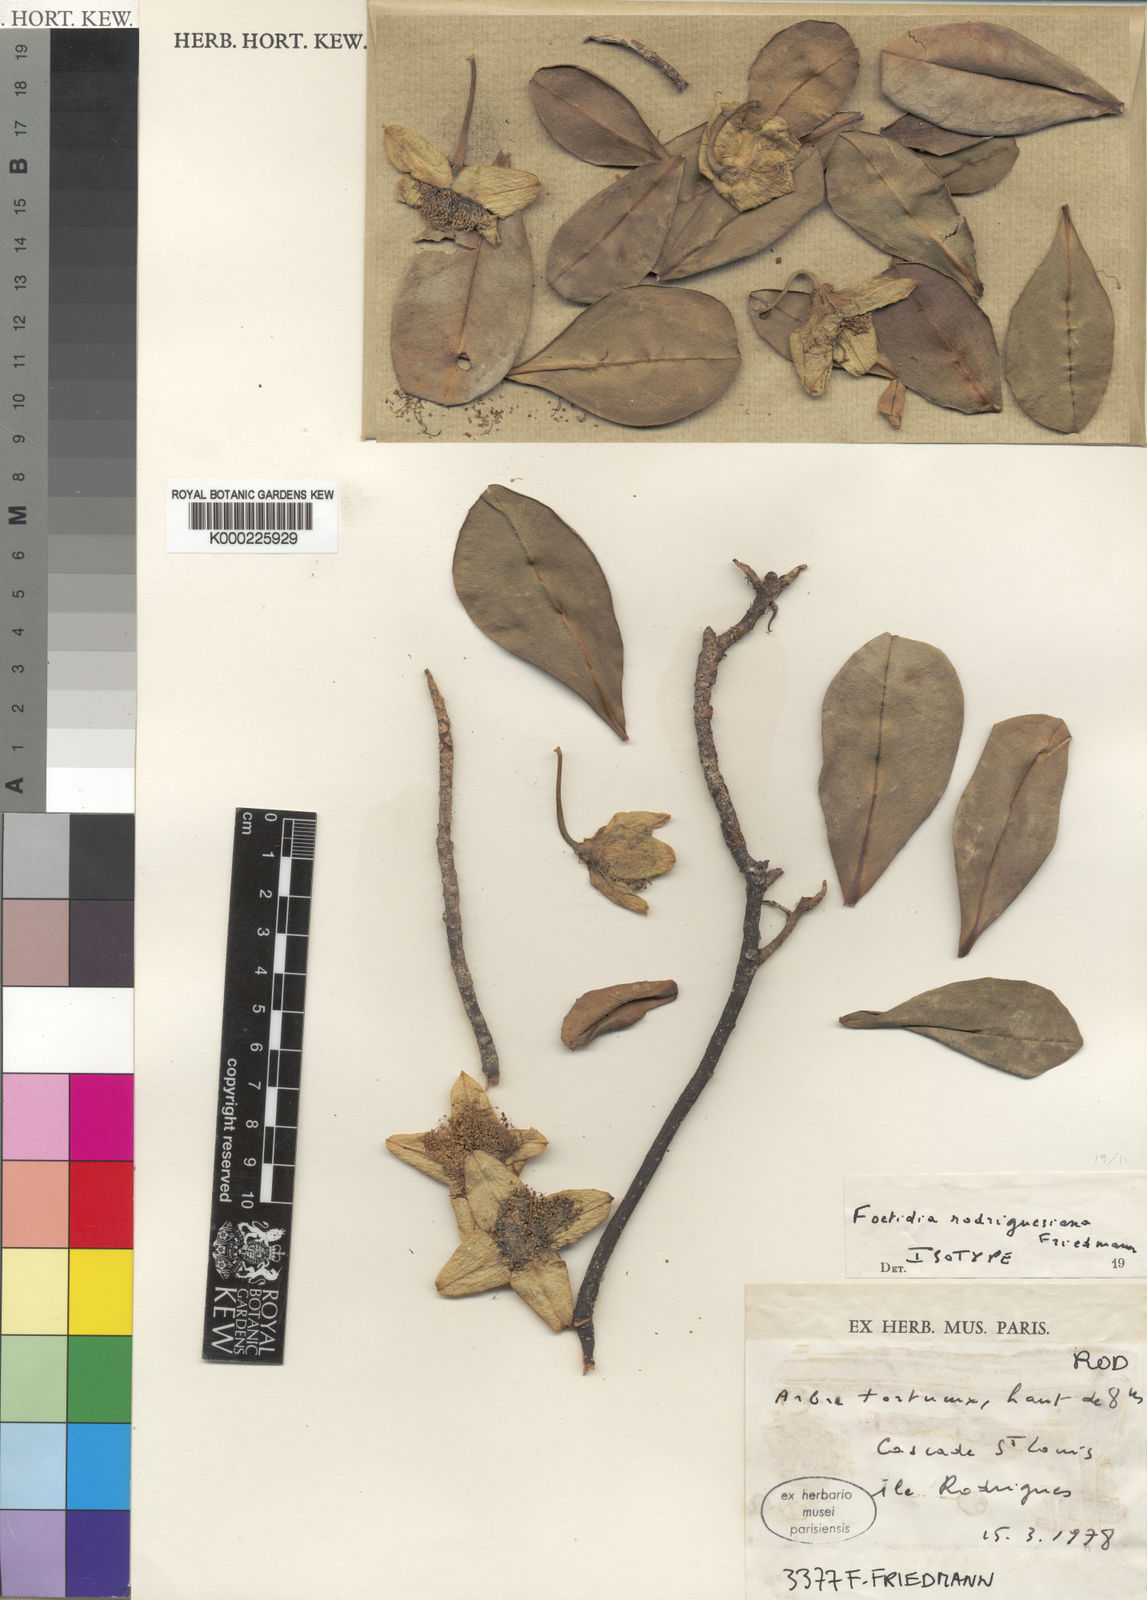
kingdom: Plantae
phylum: Tracheophyta
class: Magnoliopsida
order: Ericales
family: Lecythidaceae
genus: Foetidia
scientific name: Foetidia rodriguesiana
